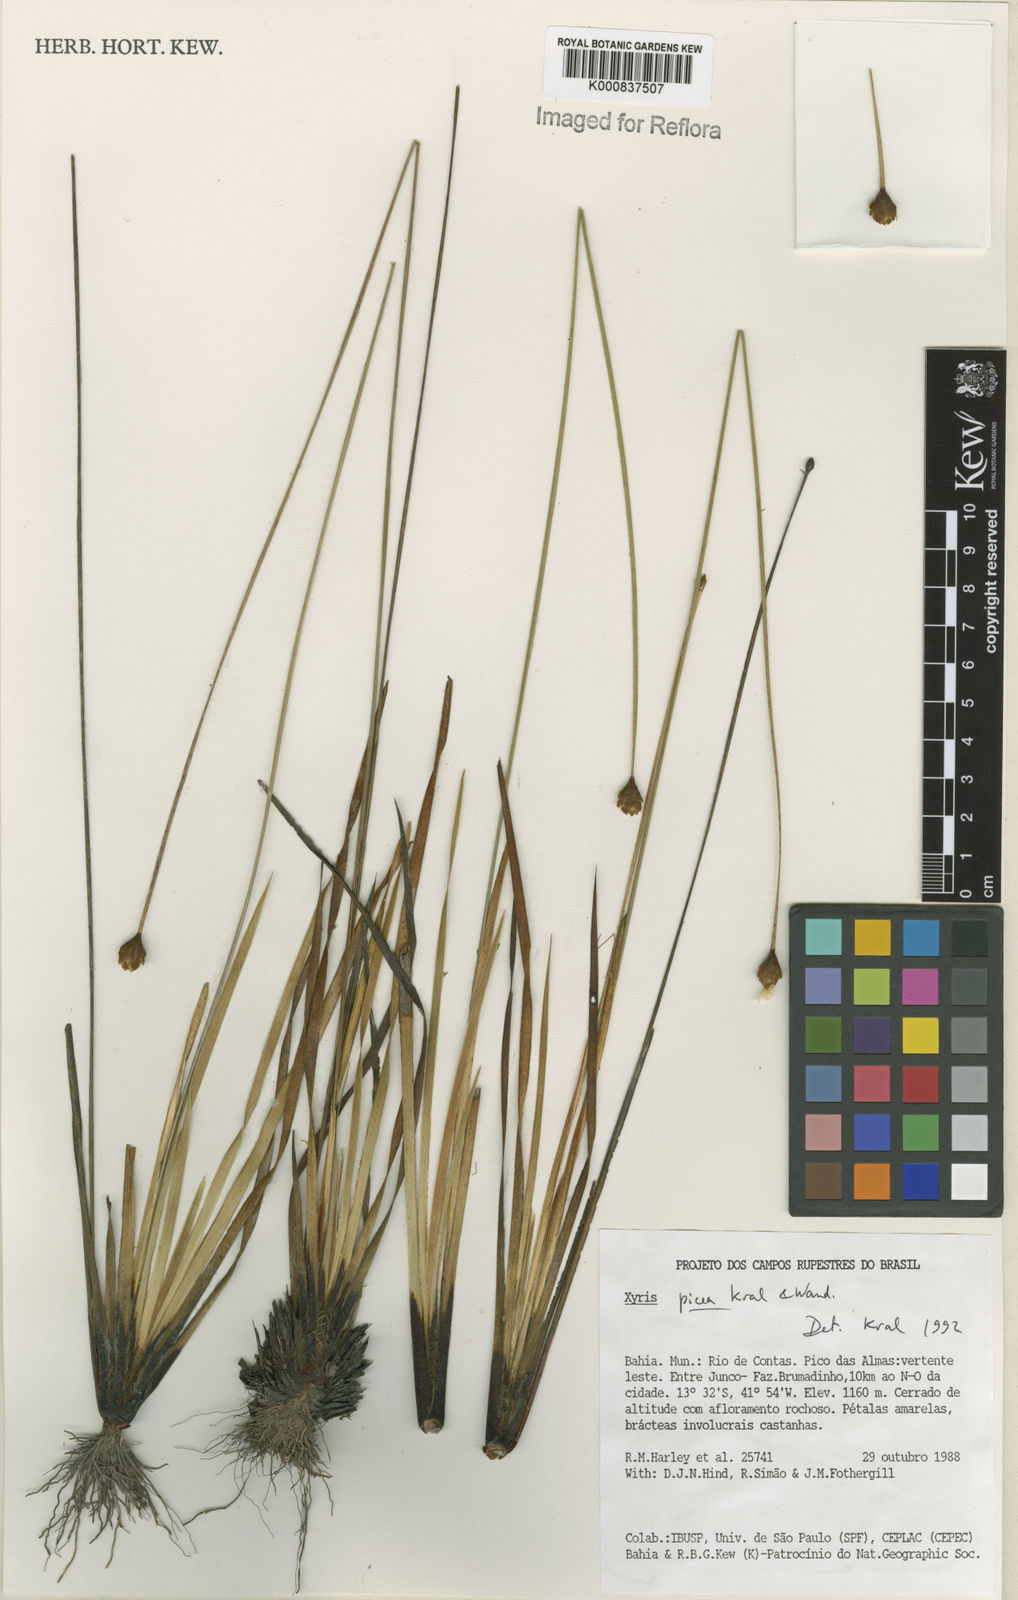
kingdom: Plantae
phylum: Tracheophyta
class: Liliopsida
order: Poales
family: Xyridaceae
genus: Xyris
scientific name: Xyris picea
